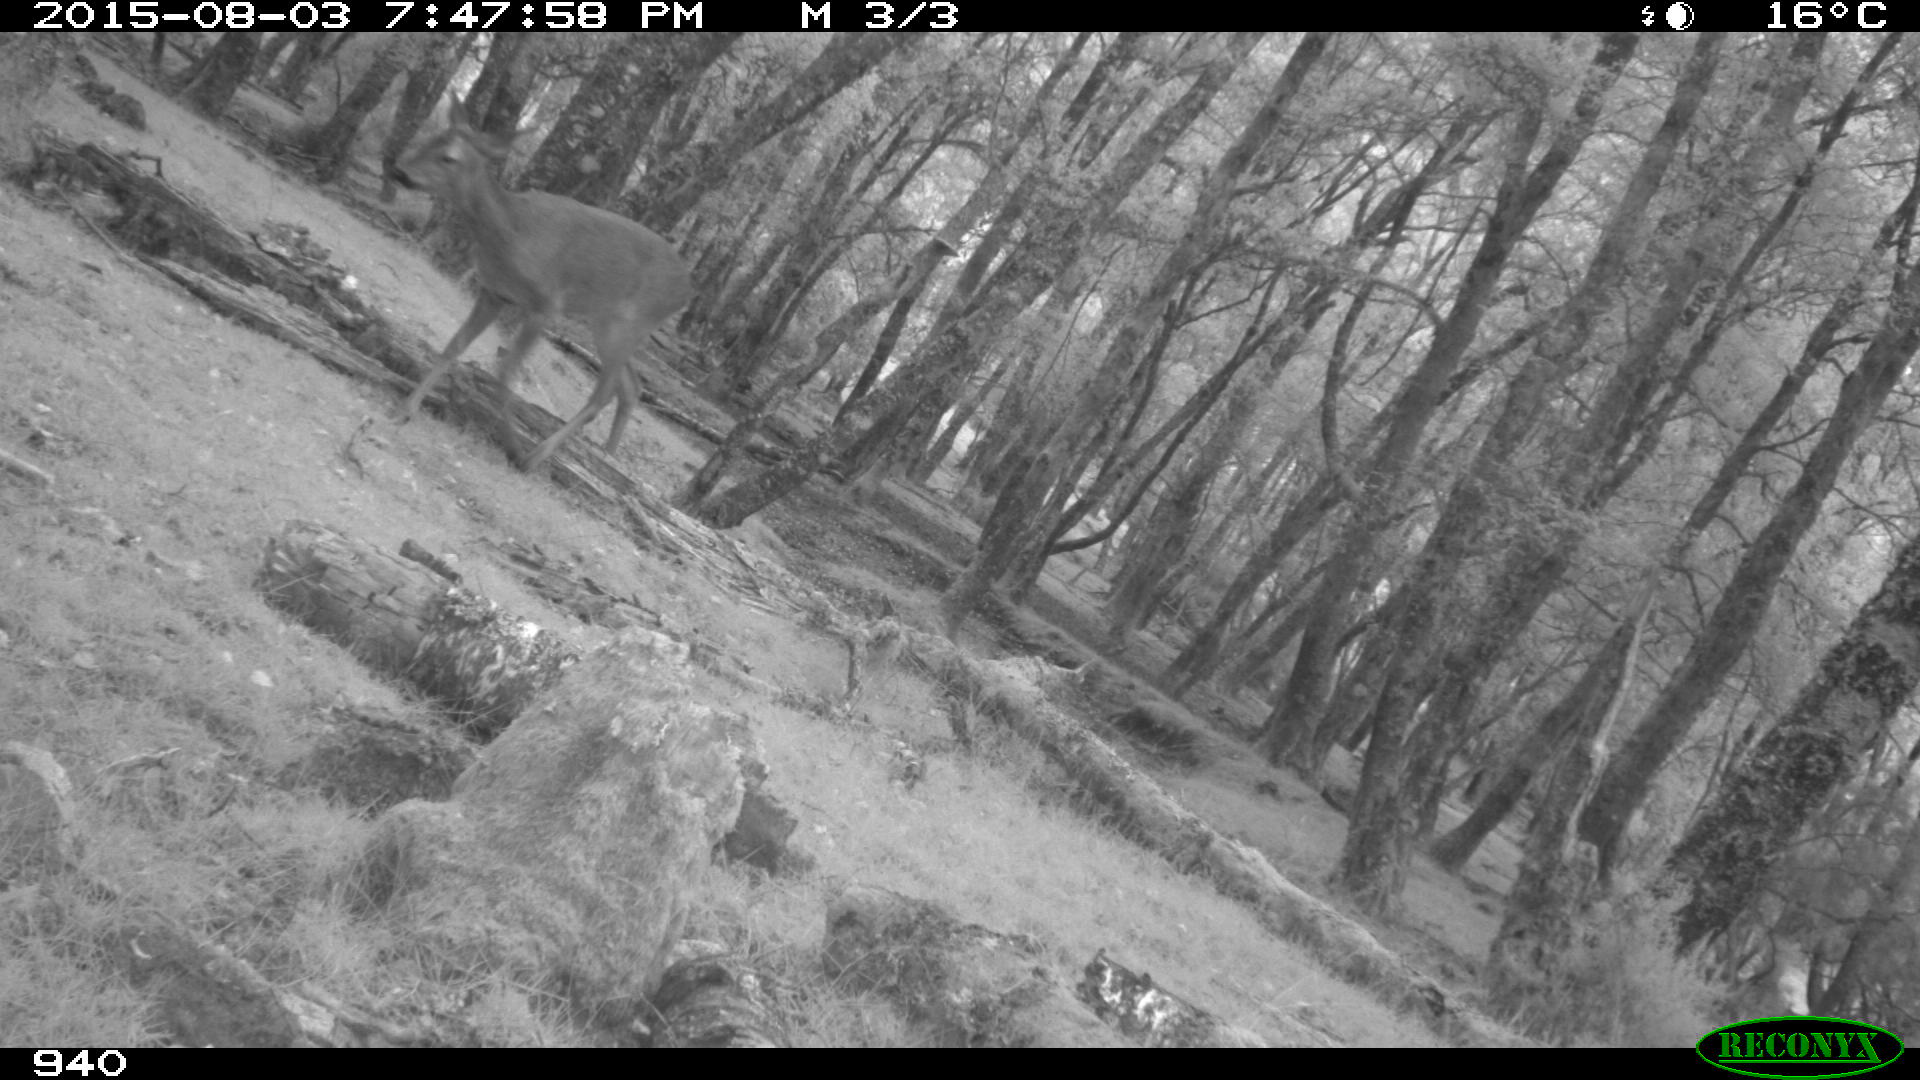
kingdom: Animalia
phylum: Chordata
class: Mammalia
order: Artiodactyla
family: Cervidae
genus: Capreolus
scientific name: Capreolus capreolus
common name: Western roe deer
